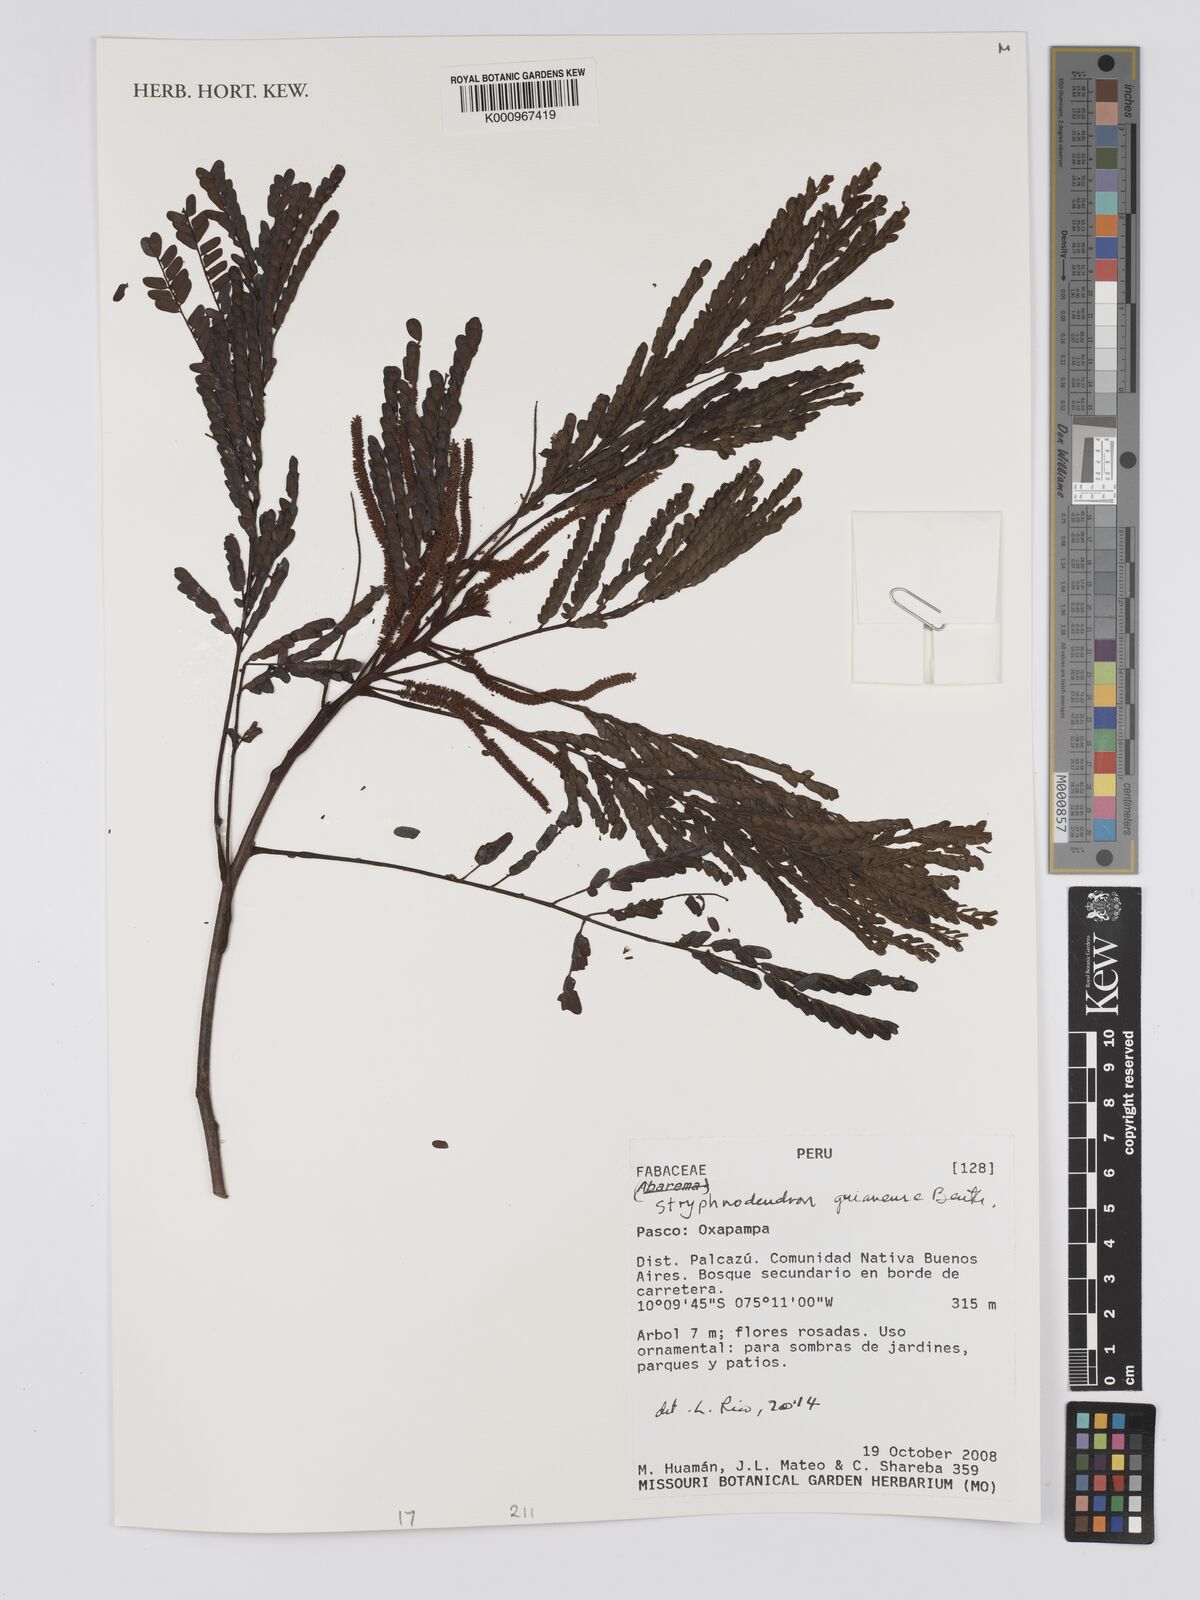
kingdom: Plantae
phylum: Tracheophyta
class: Magnoliopsida
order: Fabales
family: Fabaceae
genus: Stryphnodendron
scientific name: Stryphnodendron guianense
